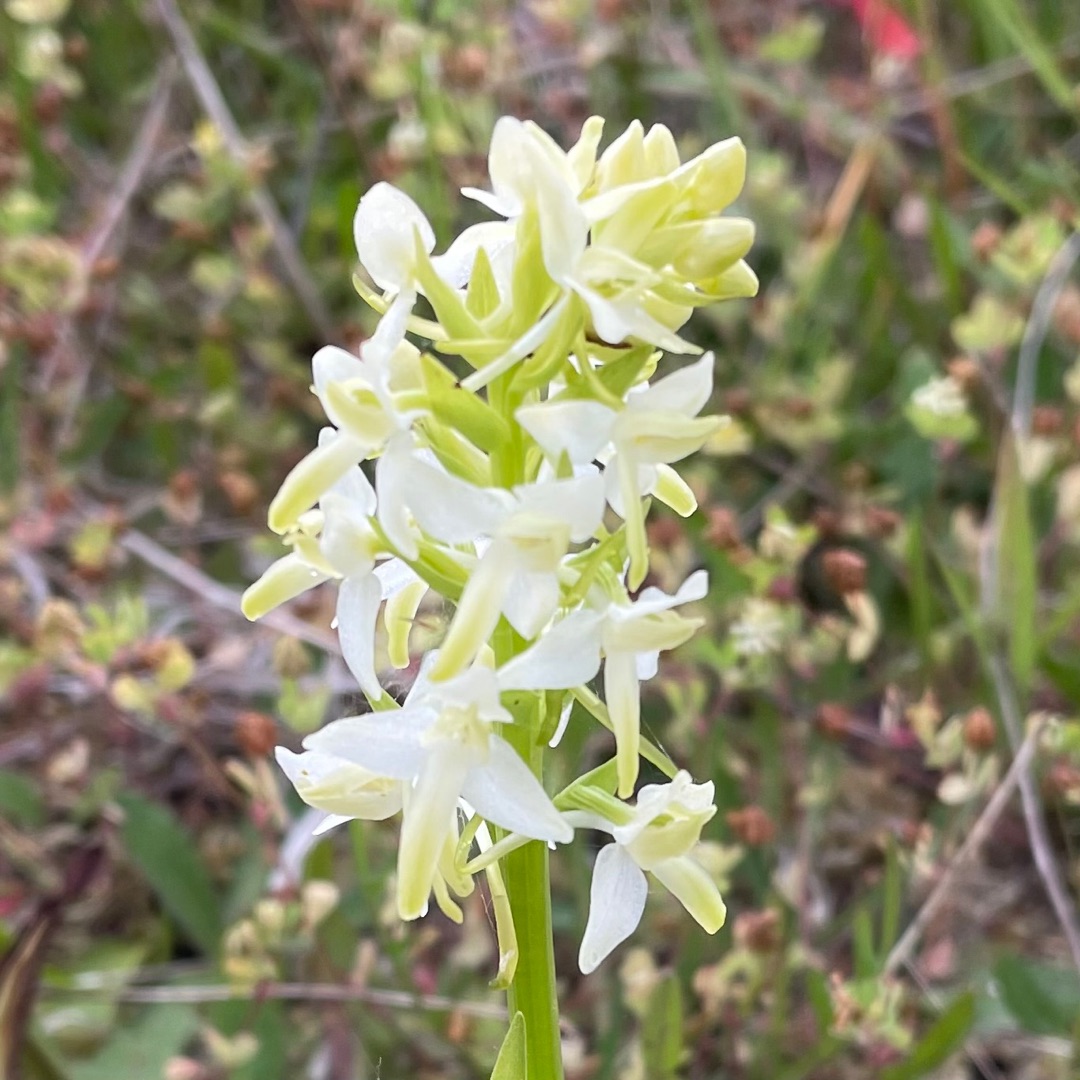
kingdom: Plantae
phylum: Tracheophyta
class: Liliopsida
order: Asparagales
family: Orchidaceae
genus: Platanthera
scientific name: Platanthera bifolia
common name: Bakke-gøgelilje
